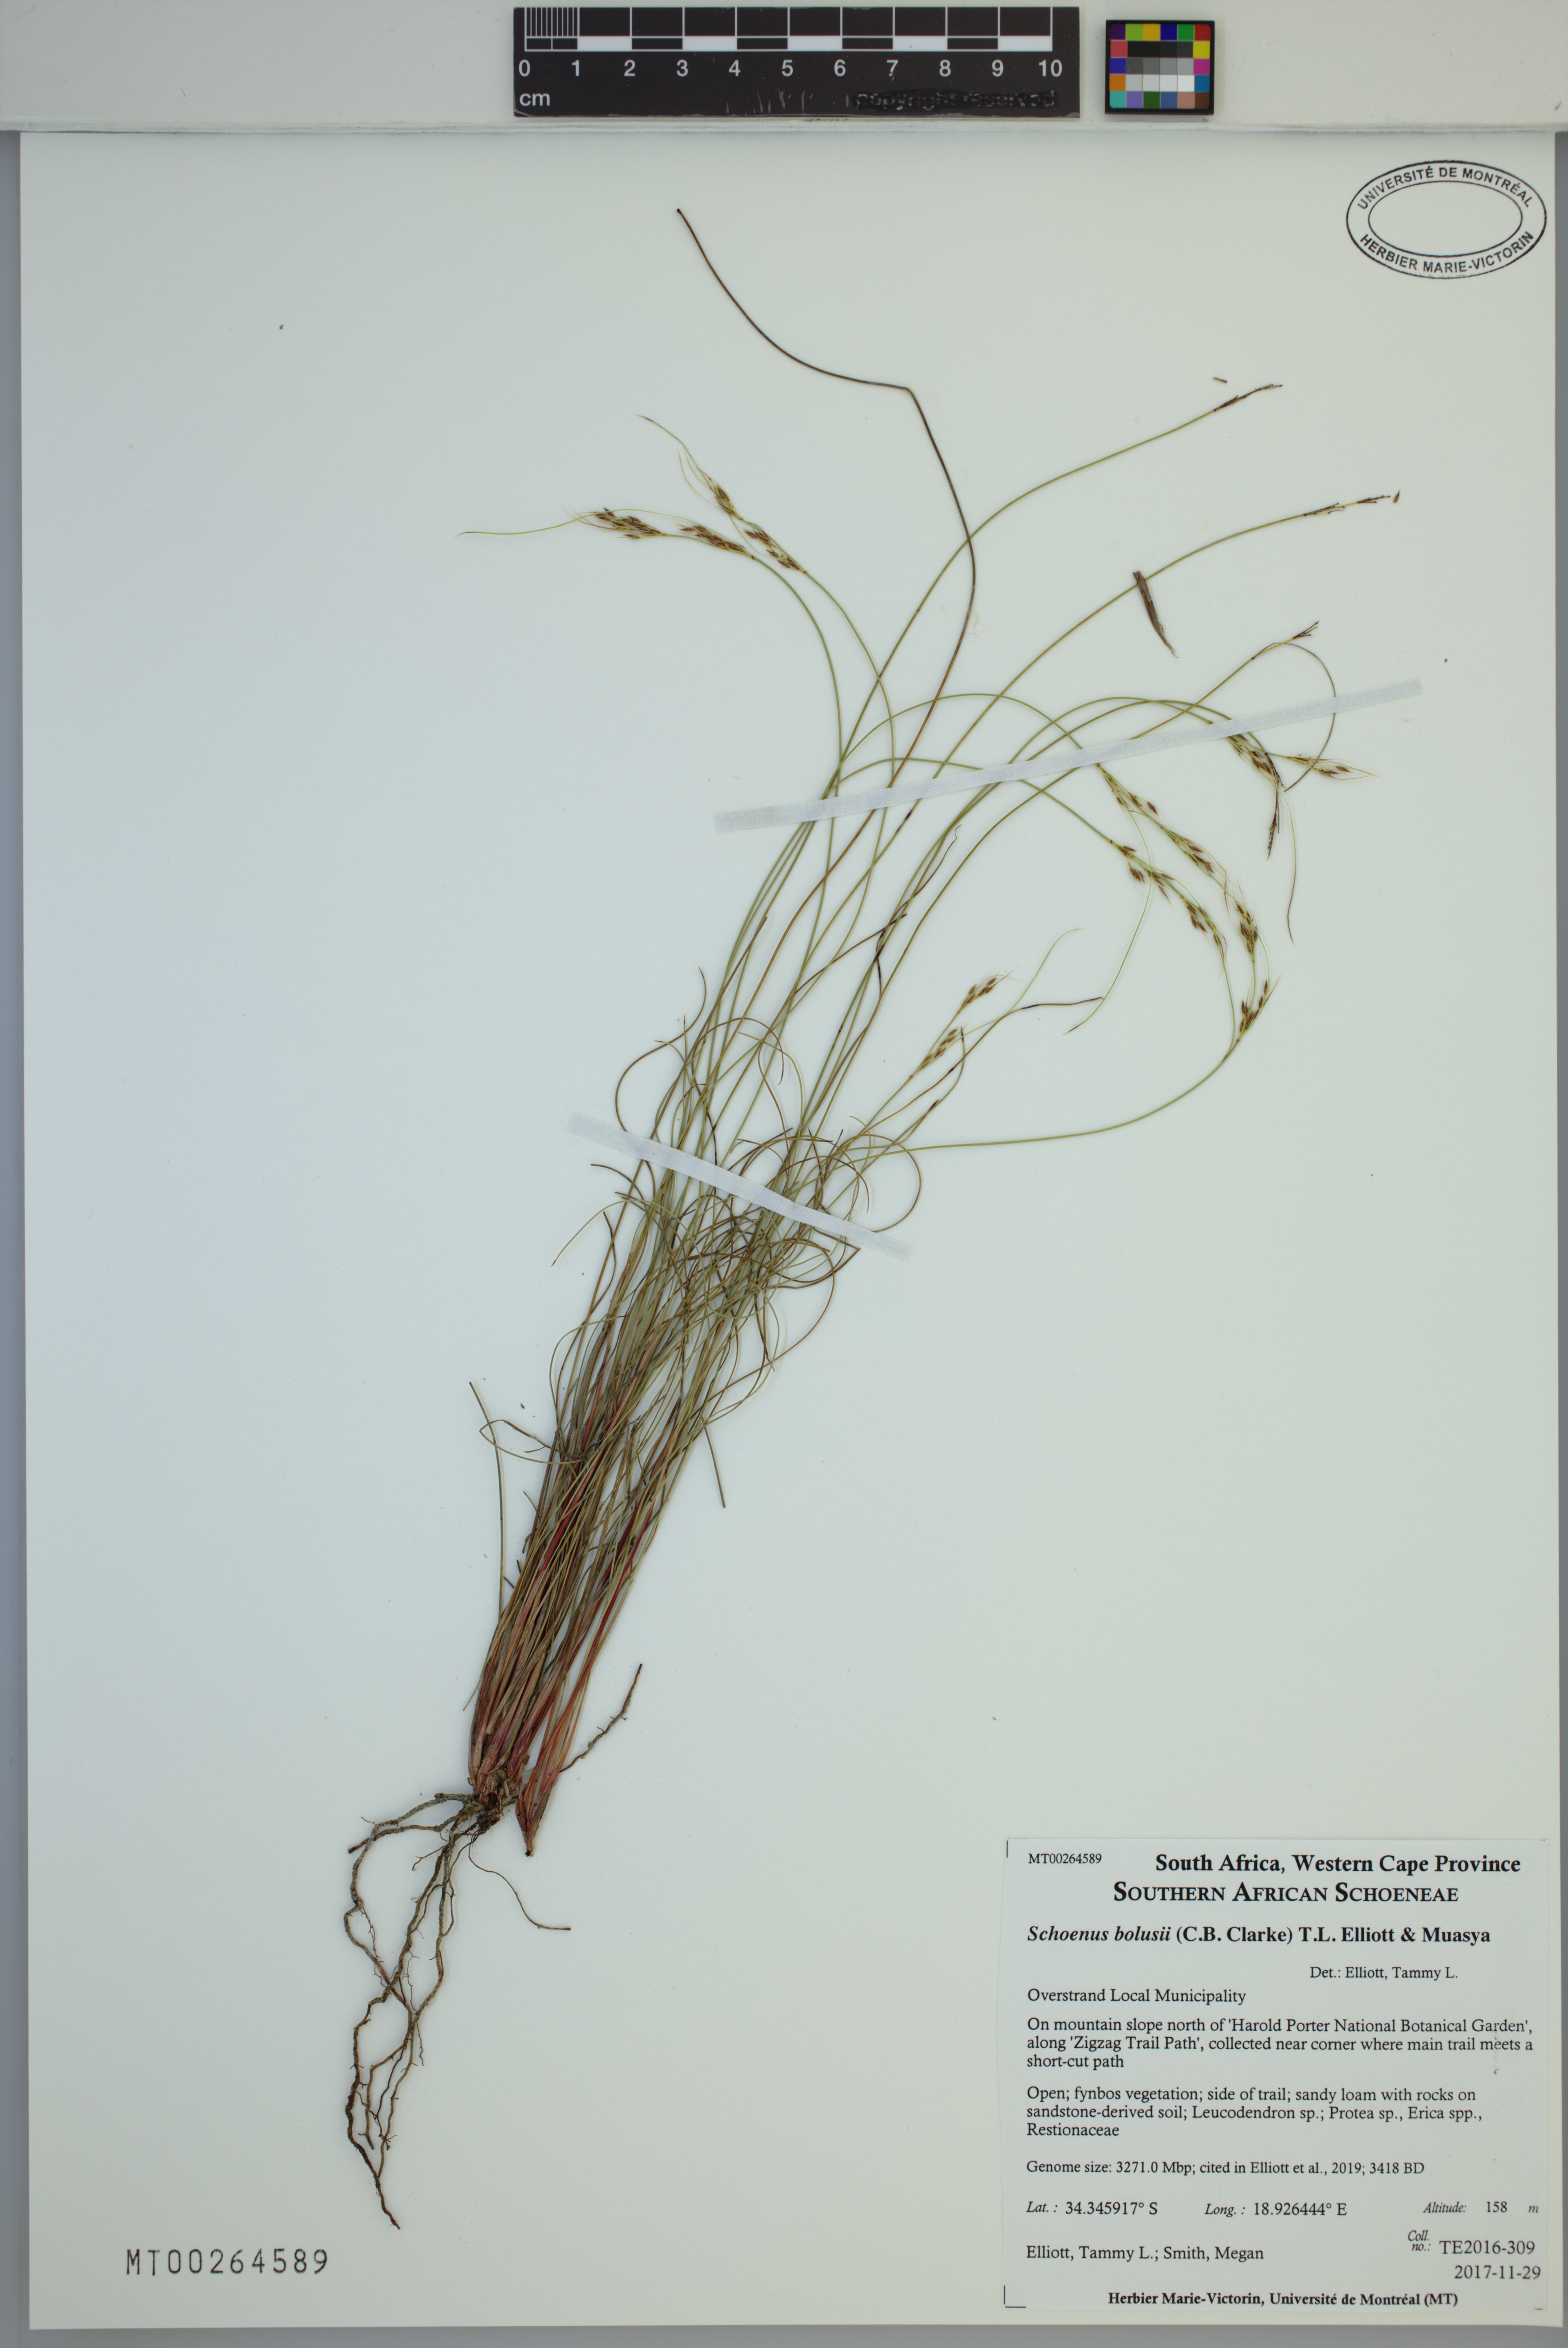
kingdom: Plantae
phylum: Tracheophyta
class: Liliopsida
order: Poales
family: Cyperaceae
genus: Schoenus
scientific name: Schoenus bolusii
